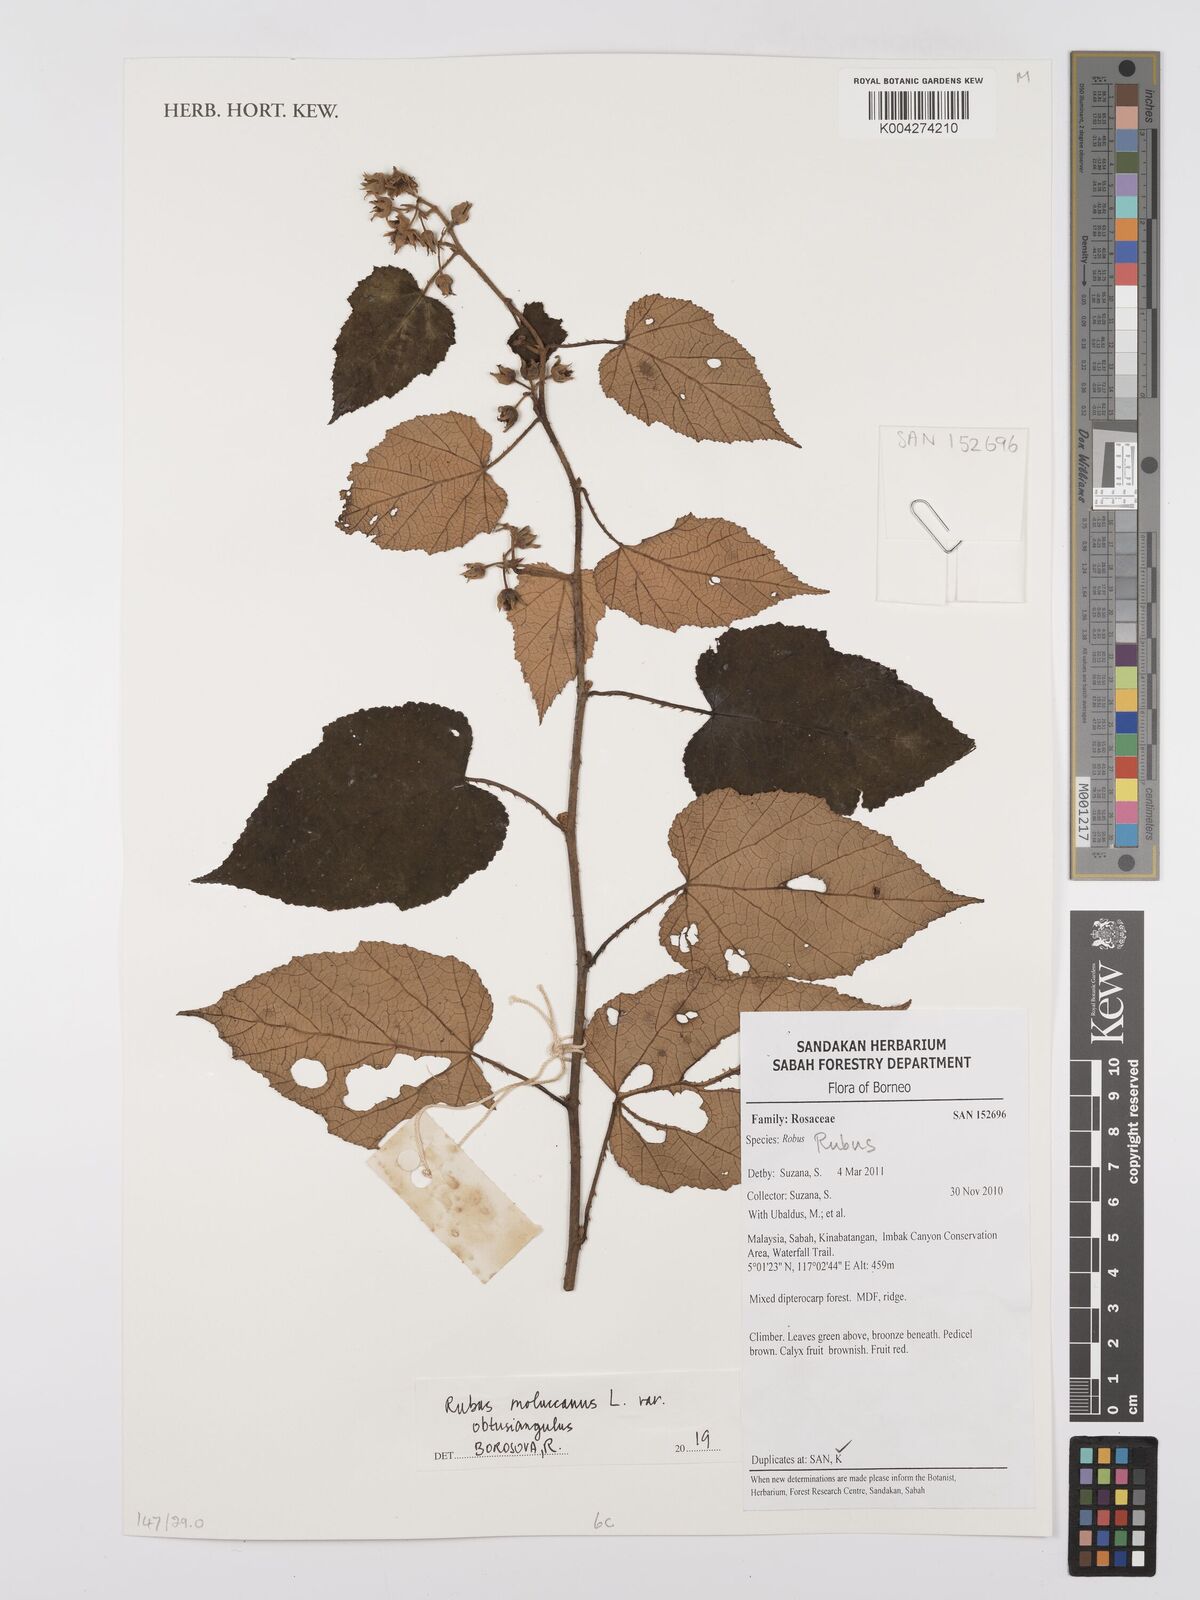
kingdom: Plantae
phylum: Tracheophyta
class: Magnoliopsida
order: Rosales
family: Rosaceae
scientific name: Rosaceae
